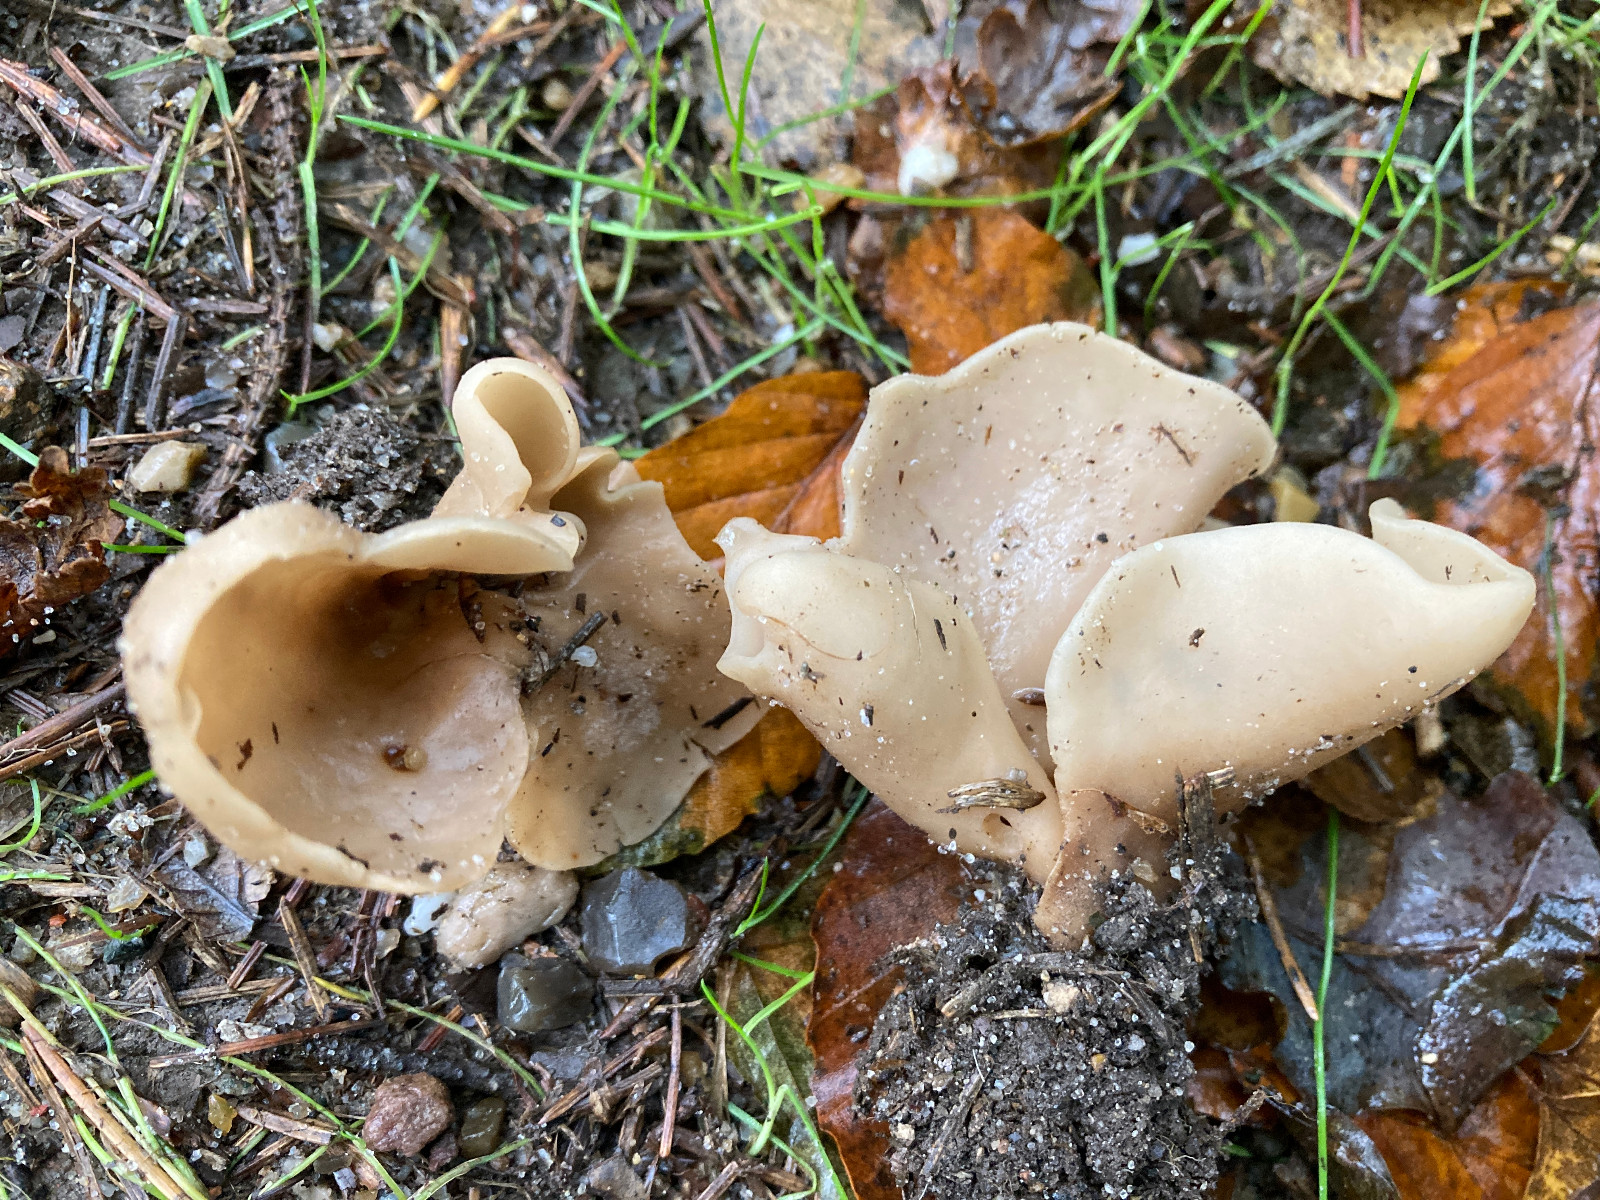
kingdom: Fungi
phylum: Ascomycota
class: Pezizomycetes
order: Pezizales
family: Otideaceae
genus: Otidea
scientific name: Otidea alutacea
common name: læder-ørebæger
